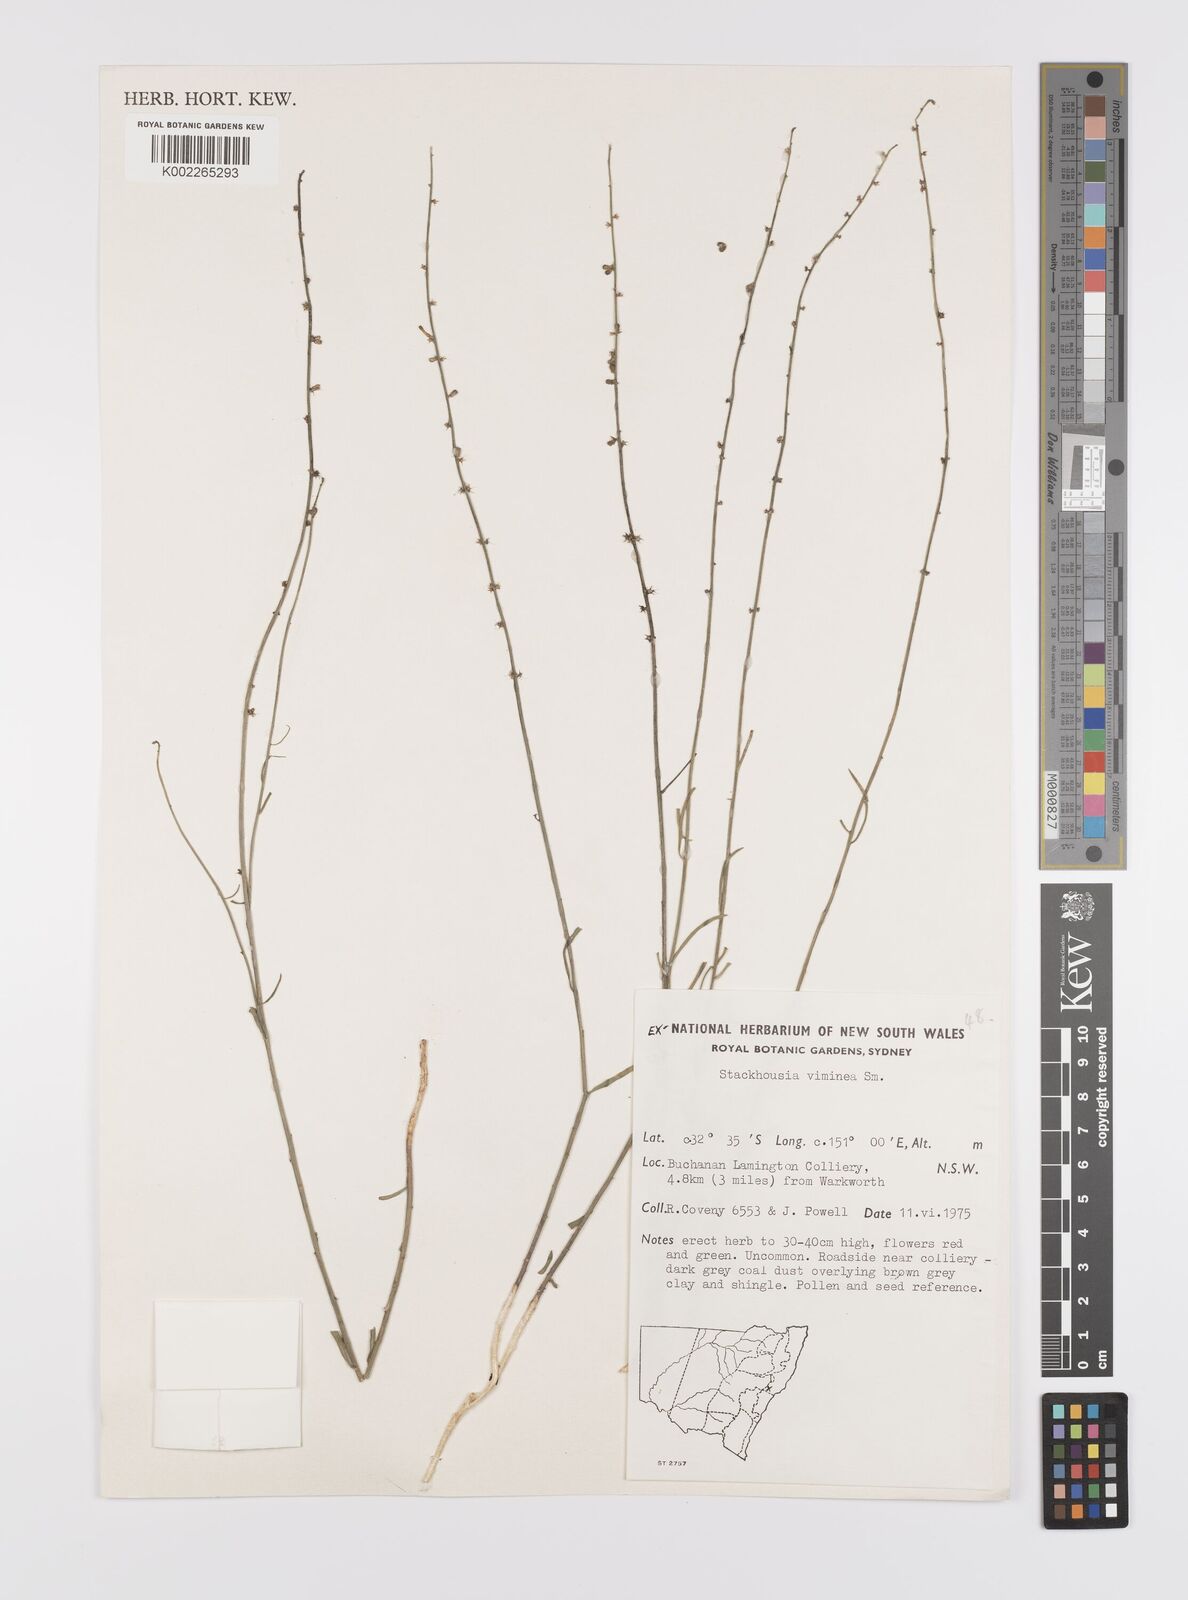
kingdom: Plantae
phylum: Tracheophyta
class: Magnoliopsida
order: Celastrales
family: Celastraceae
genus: Stackhousia
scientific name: Stackhousia viminea
